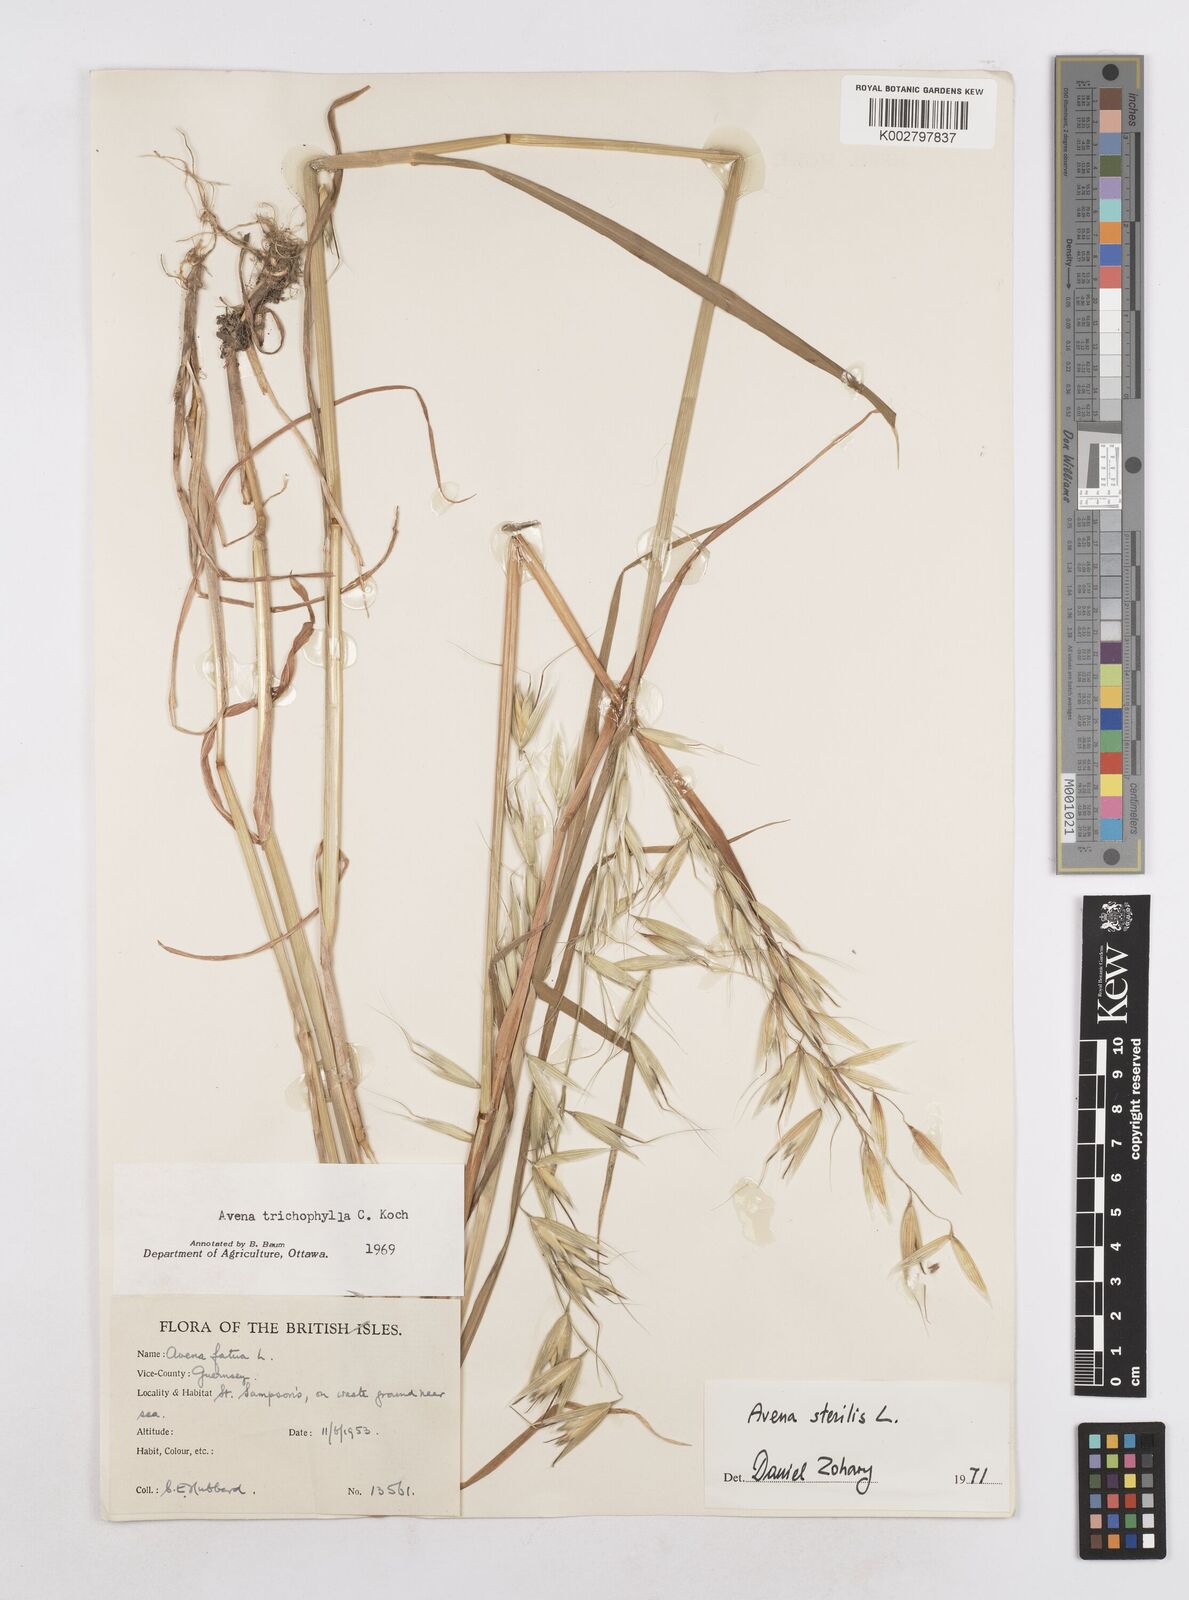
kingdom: Plantae
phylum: Tracheophyta
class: Liliopsida
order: Poales
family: Poaceae
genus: Avena
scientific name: Avena sterilis
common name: Animated oat
